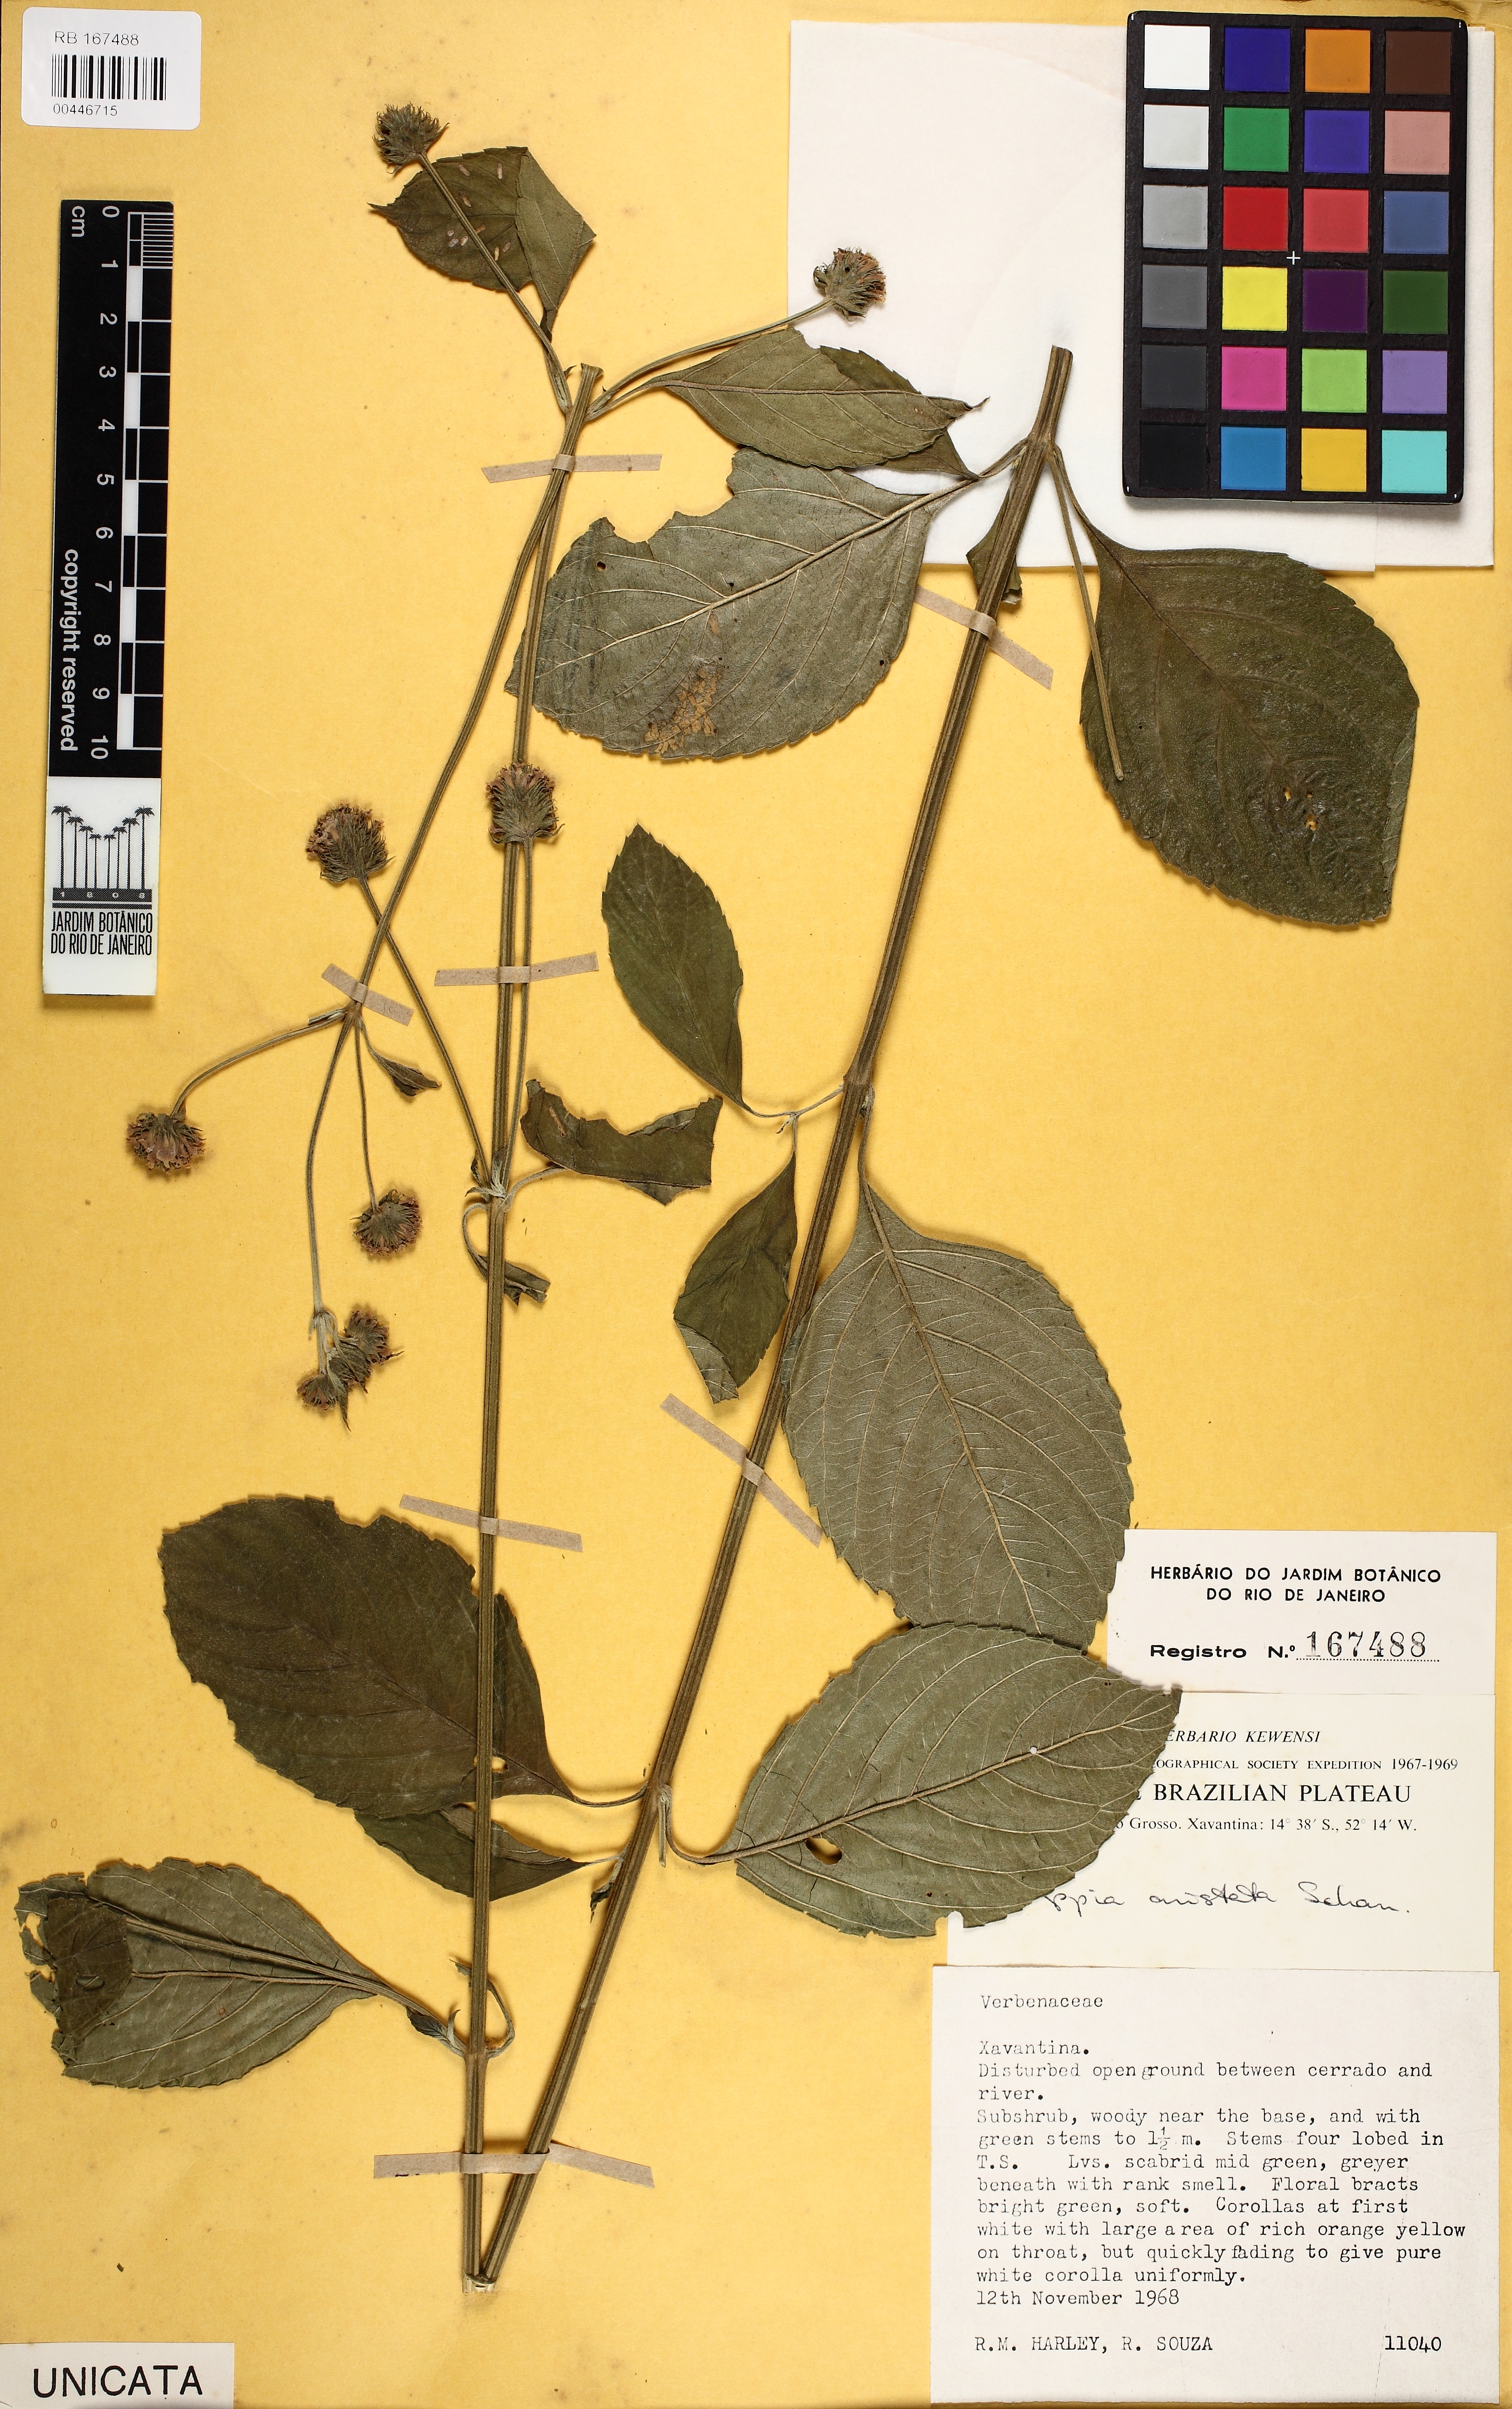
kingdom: Plantae
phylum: Tracheophyta
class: Magnoliopsida
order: Lamiales
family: Verbenaceae
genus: Lippia
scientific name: Lippia aristata
